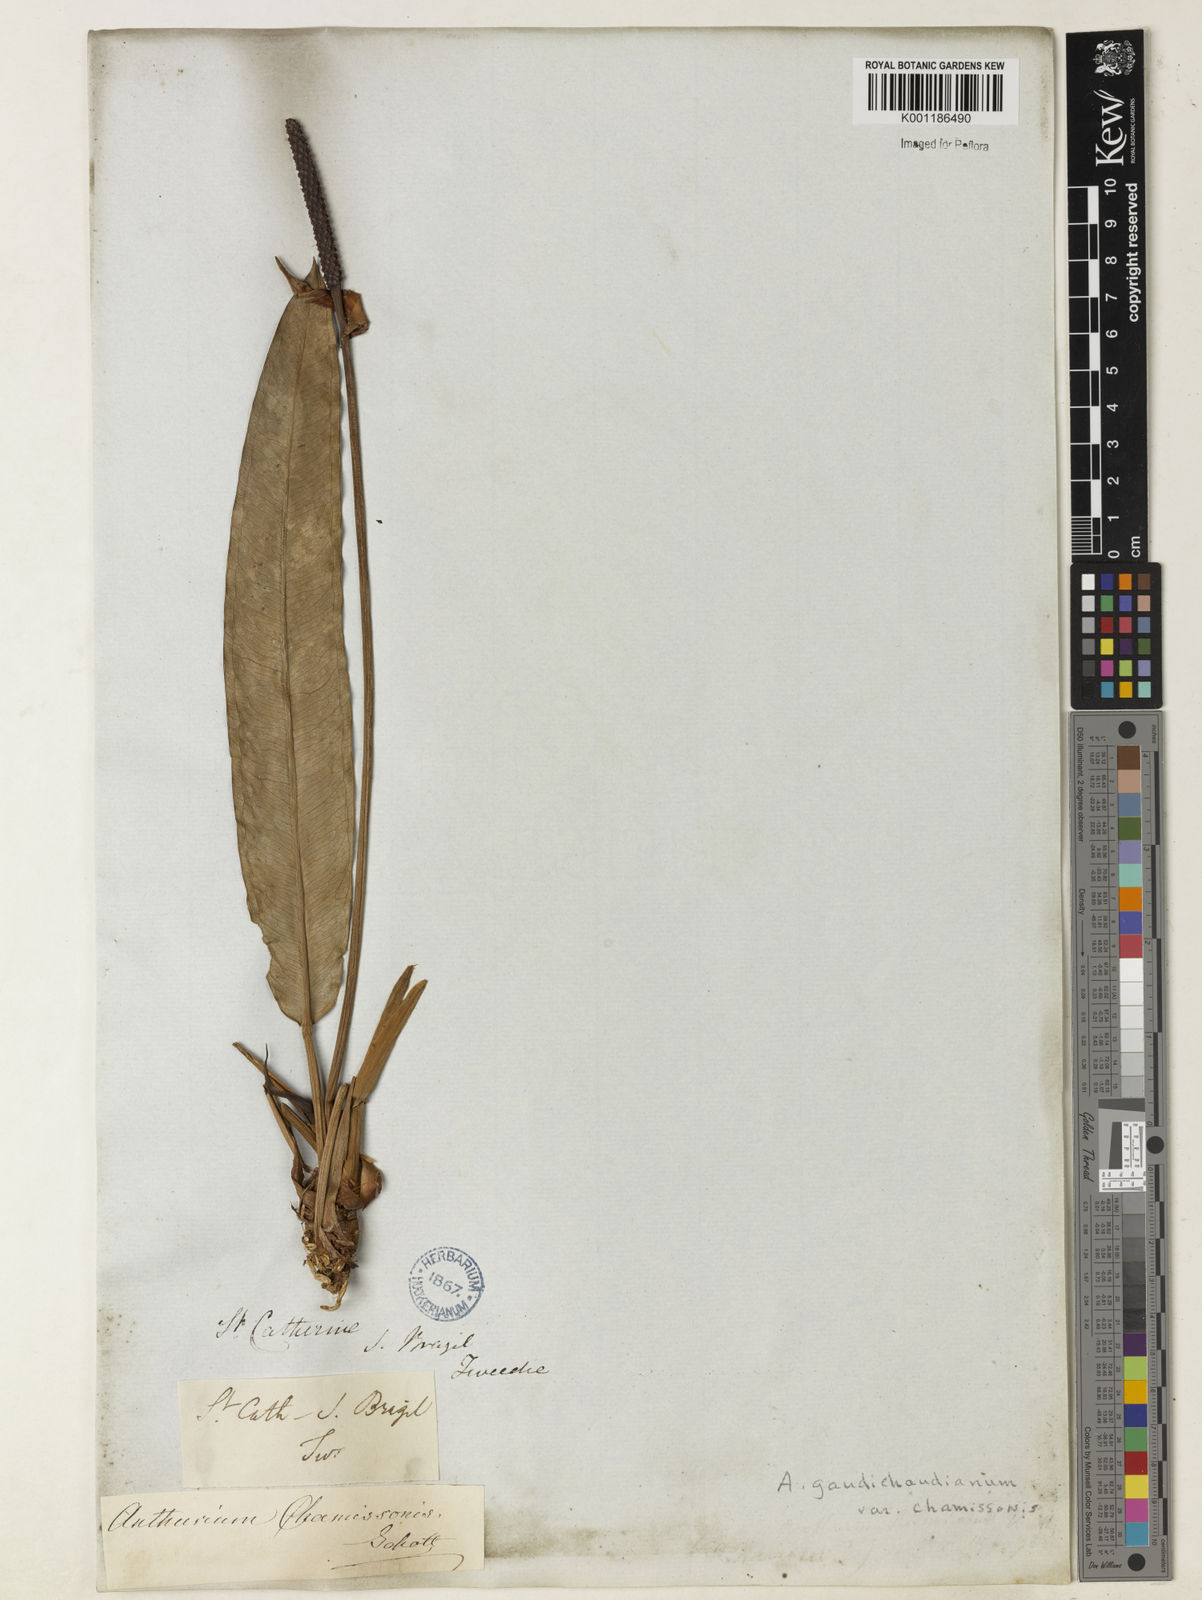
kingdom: Plantae
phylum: Tracheophyta
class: Liliopsida
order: Alismatales
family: Araceae
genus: Anthurium
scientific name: Anthurium gaudichaudianum
